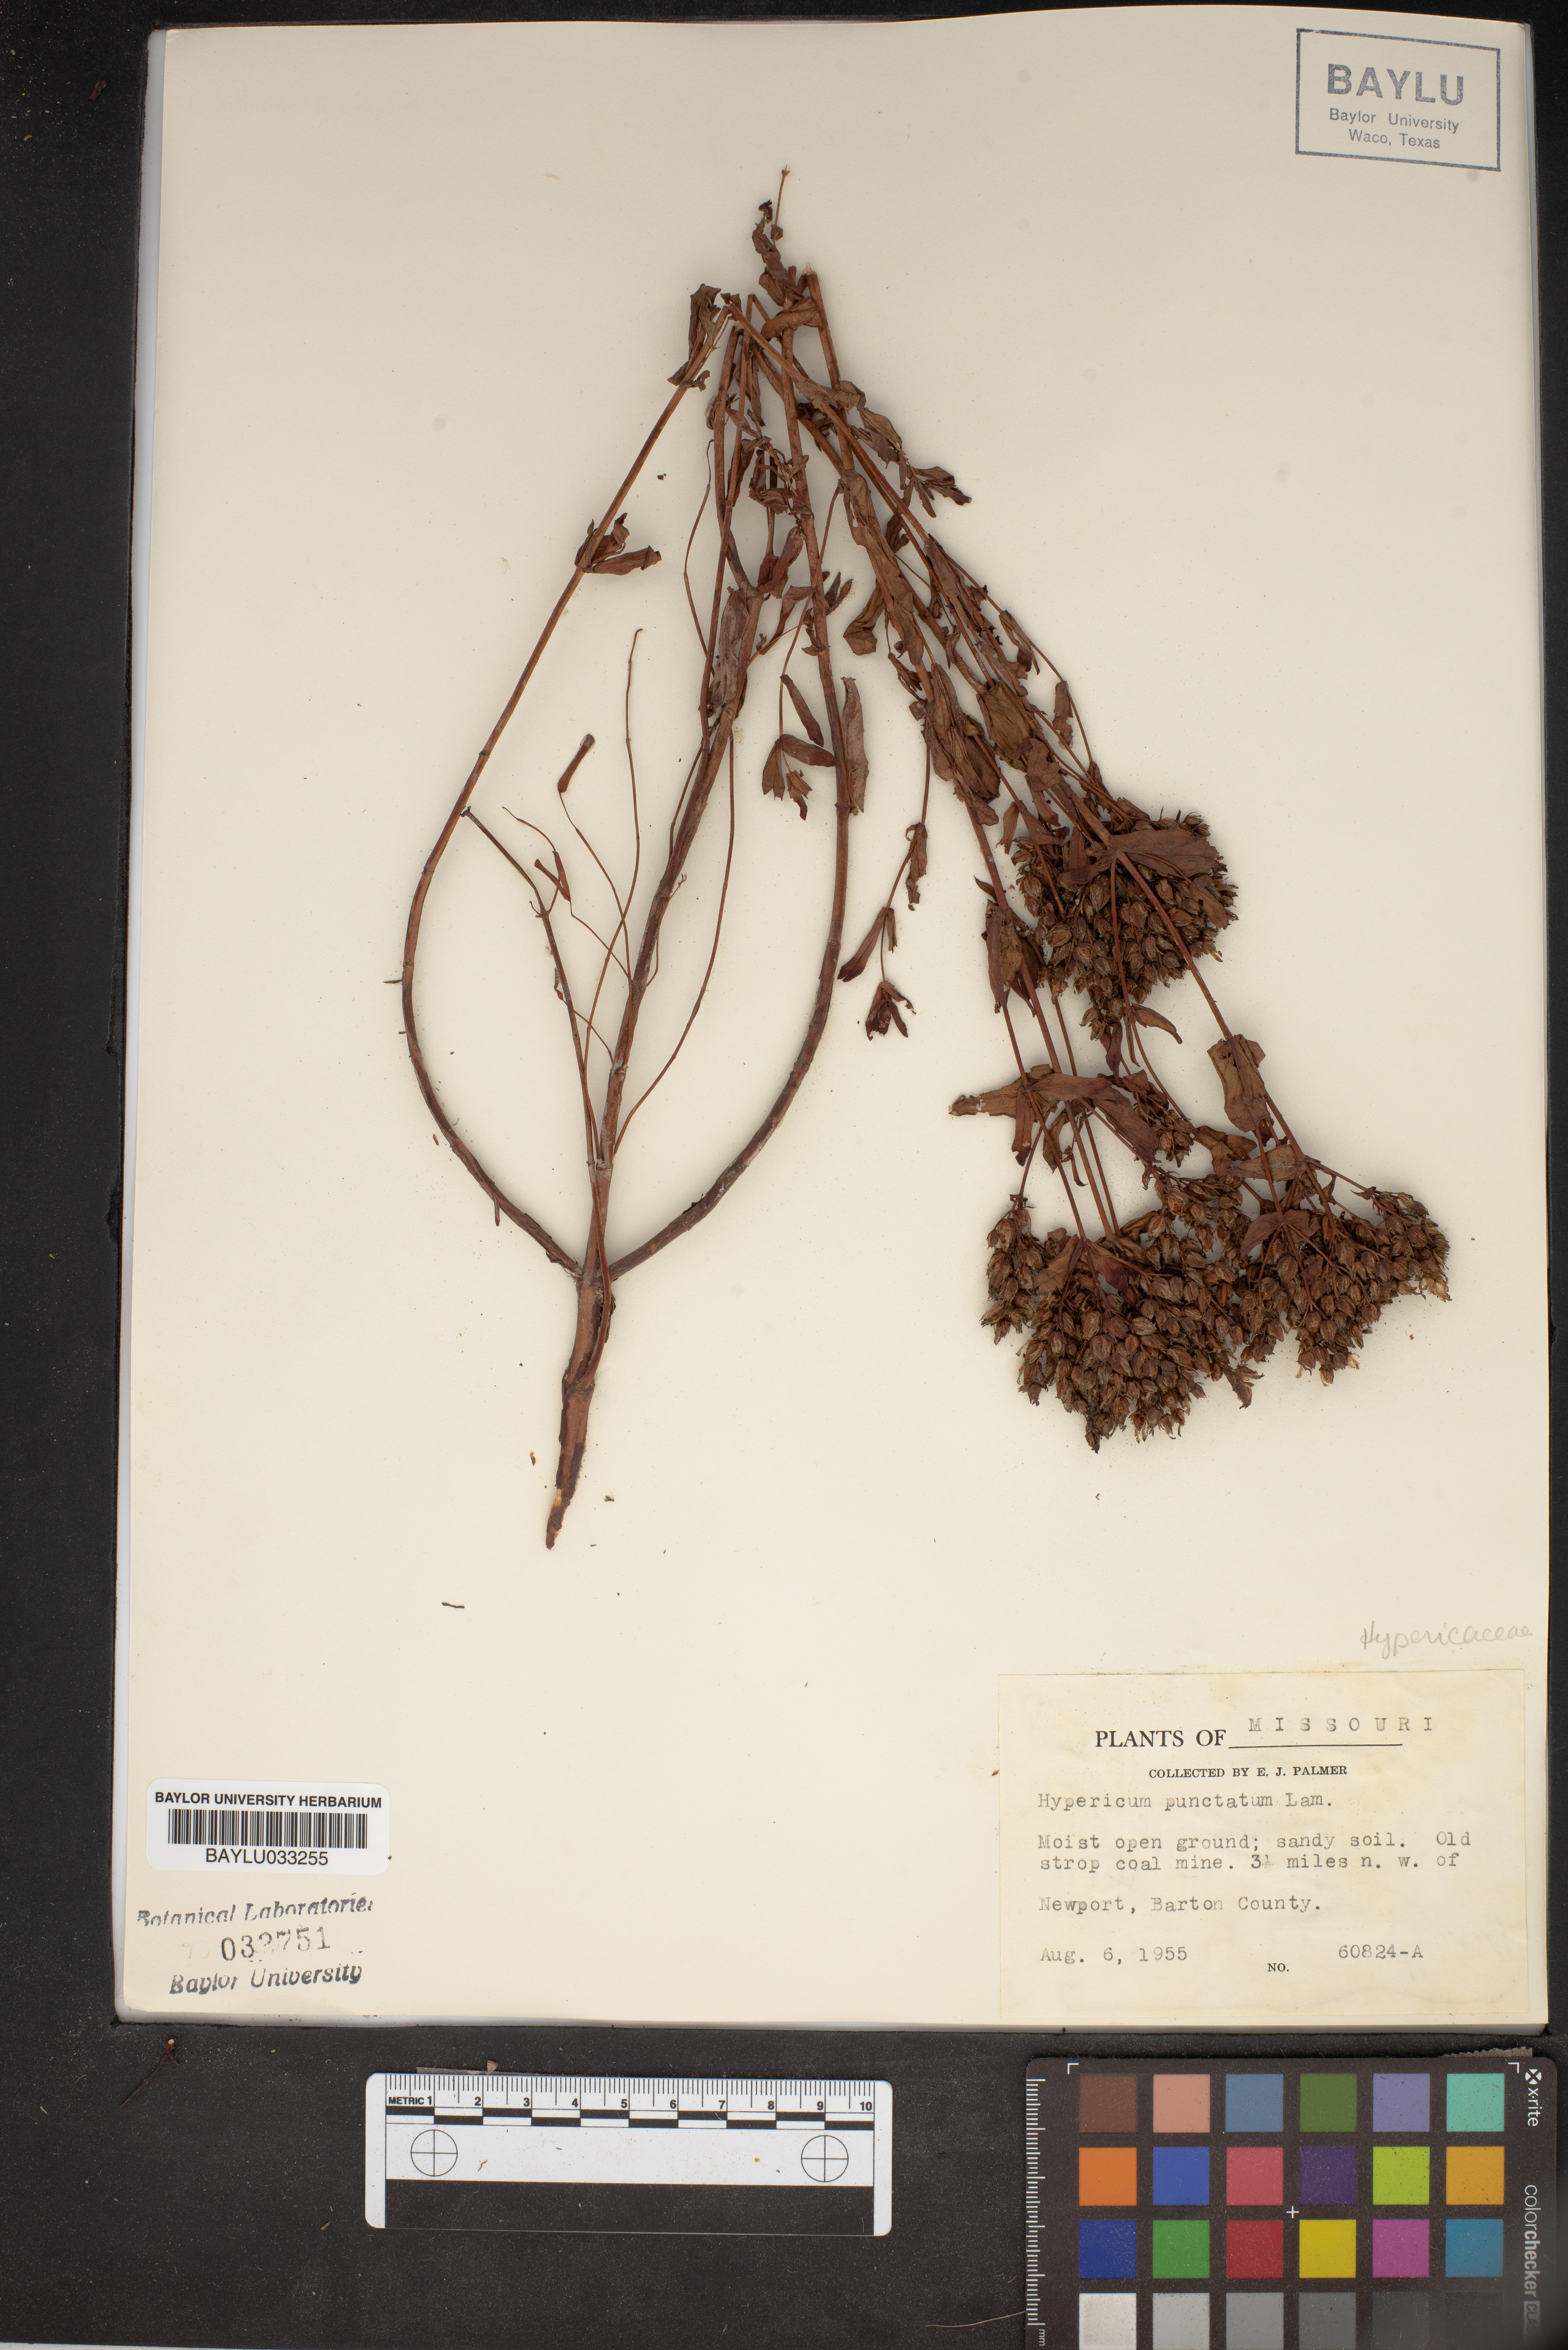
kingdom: Plantae
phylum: Tracheophyta
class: Magnoliopsida
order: Malpighiales
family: Hypericaceae
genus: Hypericum
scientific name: Hypericum punctatum
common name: Spotted st. john's-wort
